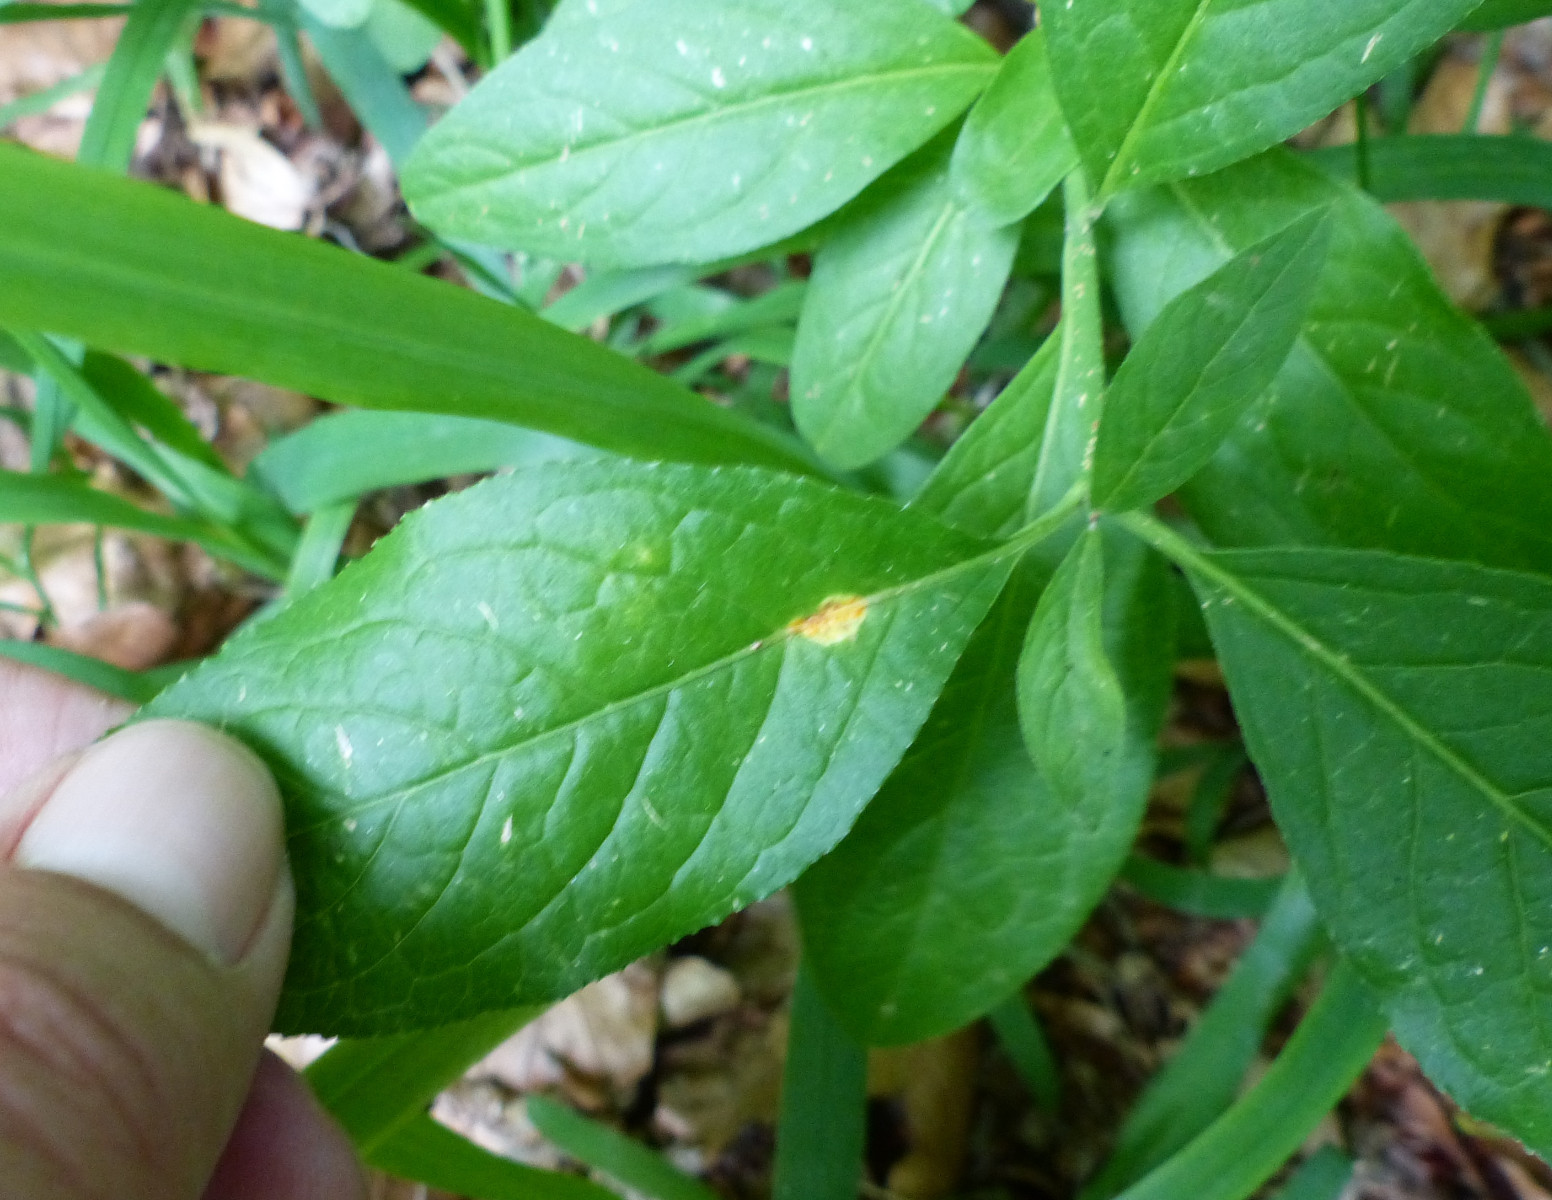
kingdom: Fungi
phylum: Basidiomycota
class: Pucciniomycetes
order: Pucciniales
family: Melampsoraceae
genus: Melampsora
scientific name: Melampsora epitea
